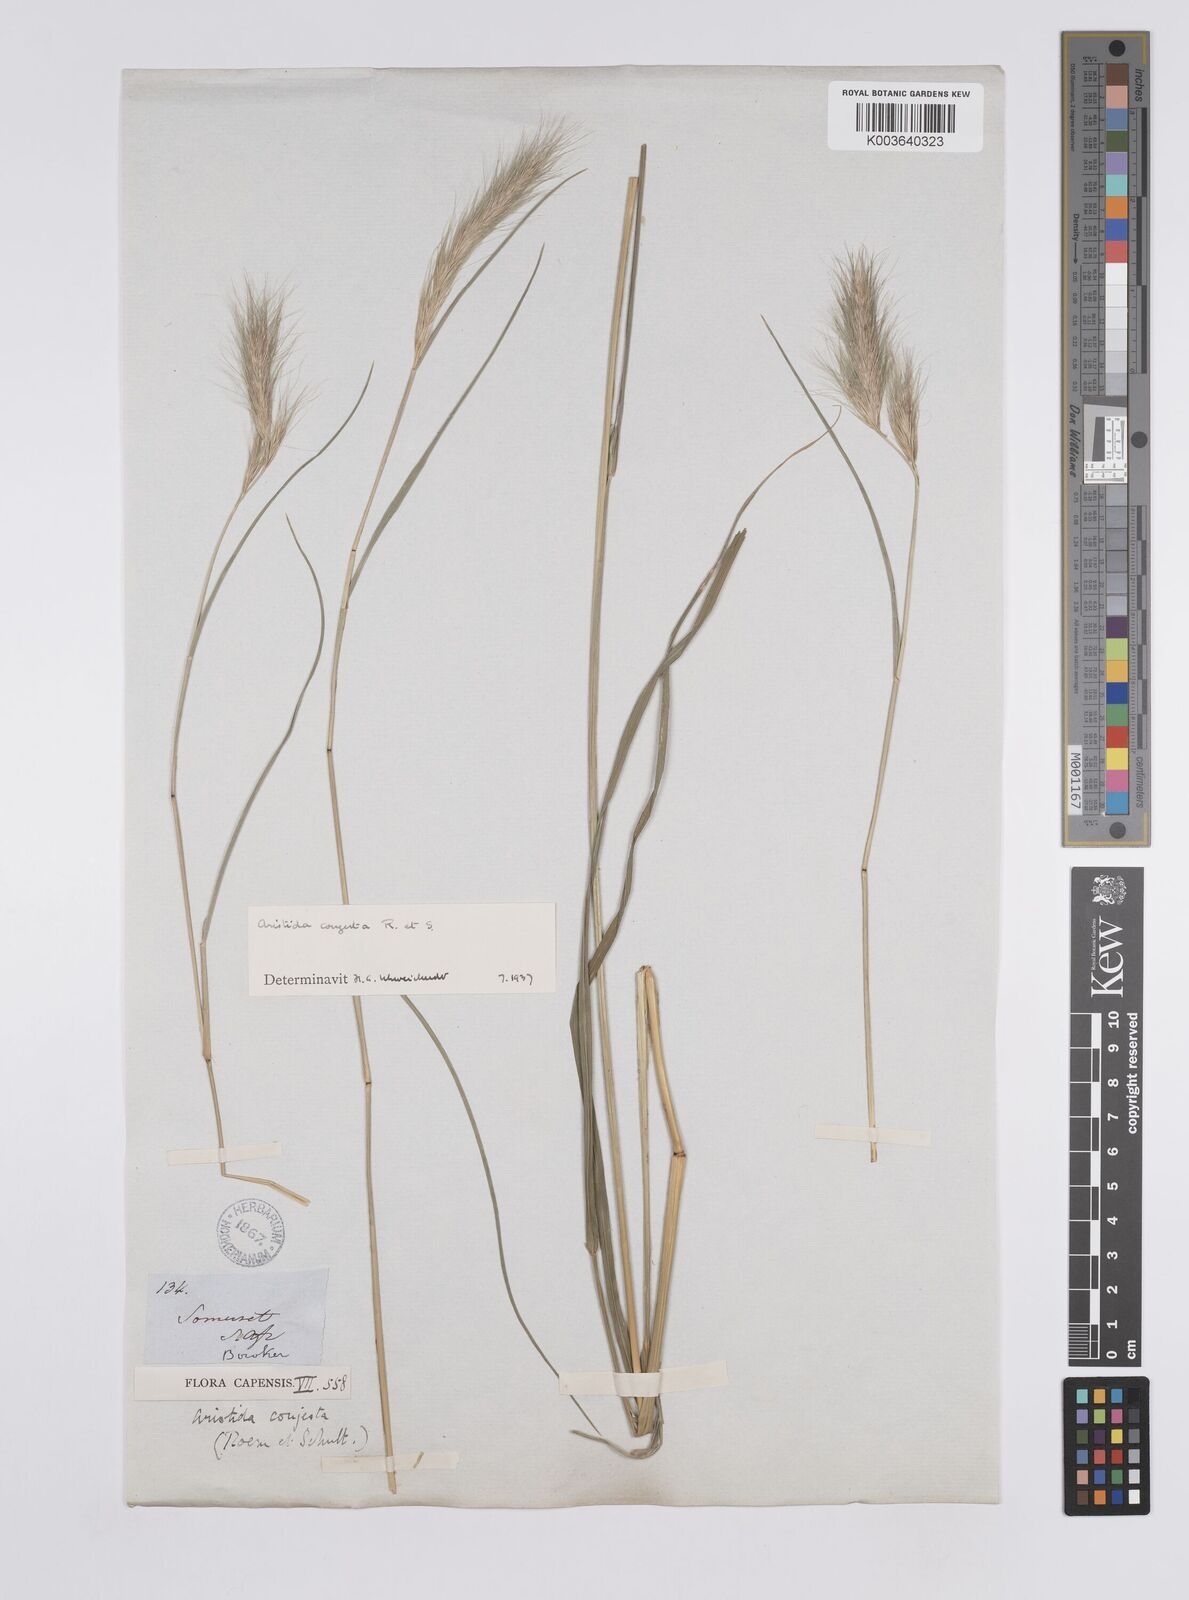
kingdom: Plantae
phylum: Tracheophyta
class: Liliopsida
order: Poales
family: Poaceae
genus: Aristida
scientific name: Aristida congesta
